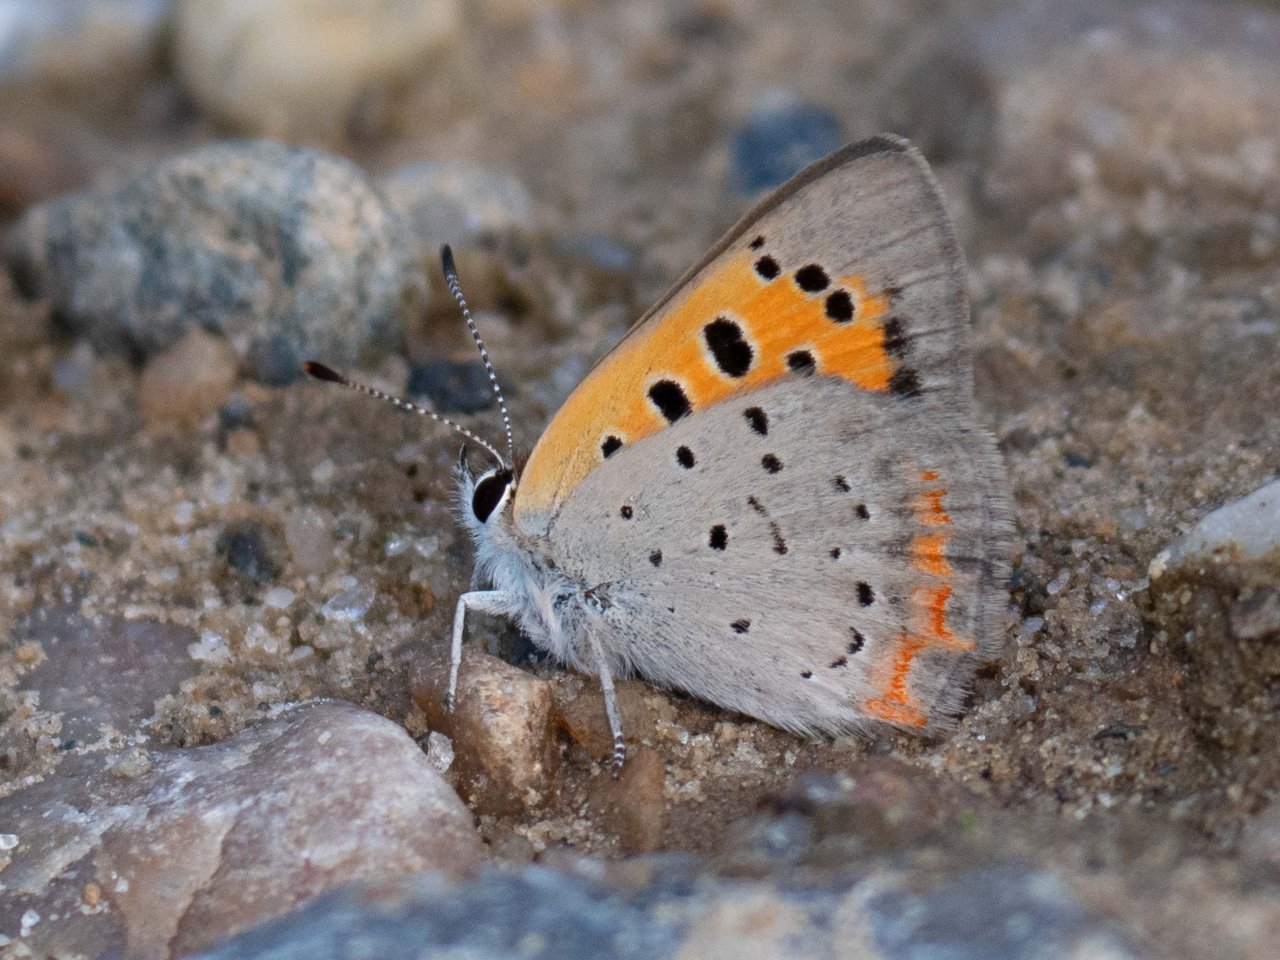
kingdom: Animalia
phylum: Arthropoda
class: Insecta
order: Lepidoptera
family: Lycaenidae
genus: Lycaena
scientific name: Lycaena phlaeas
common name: American Copper
